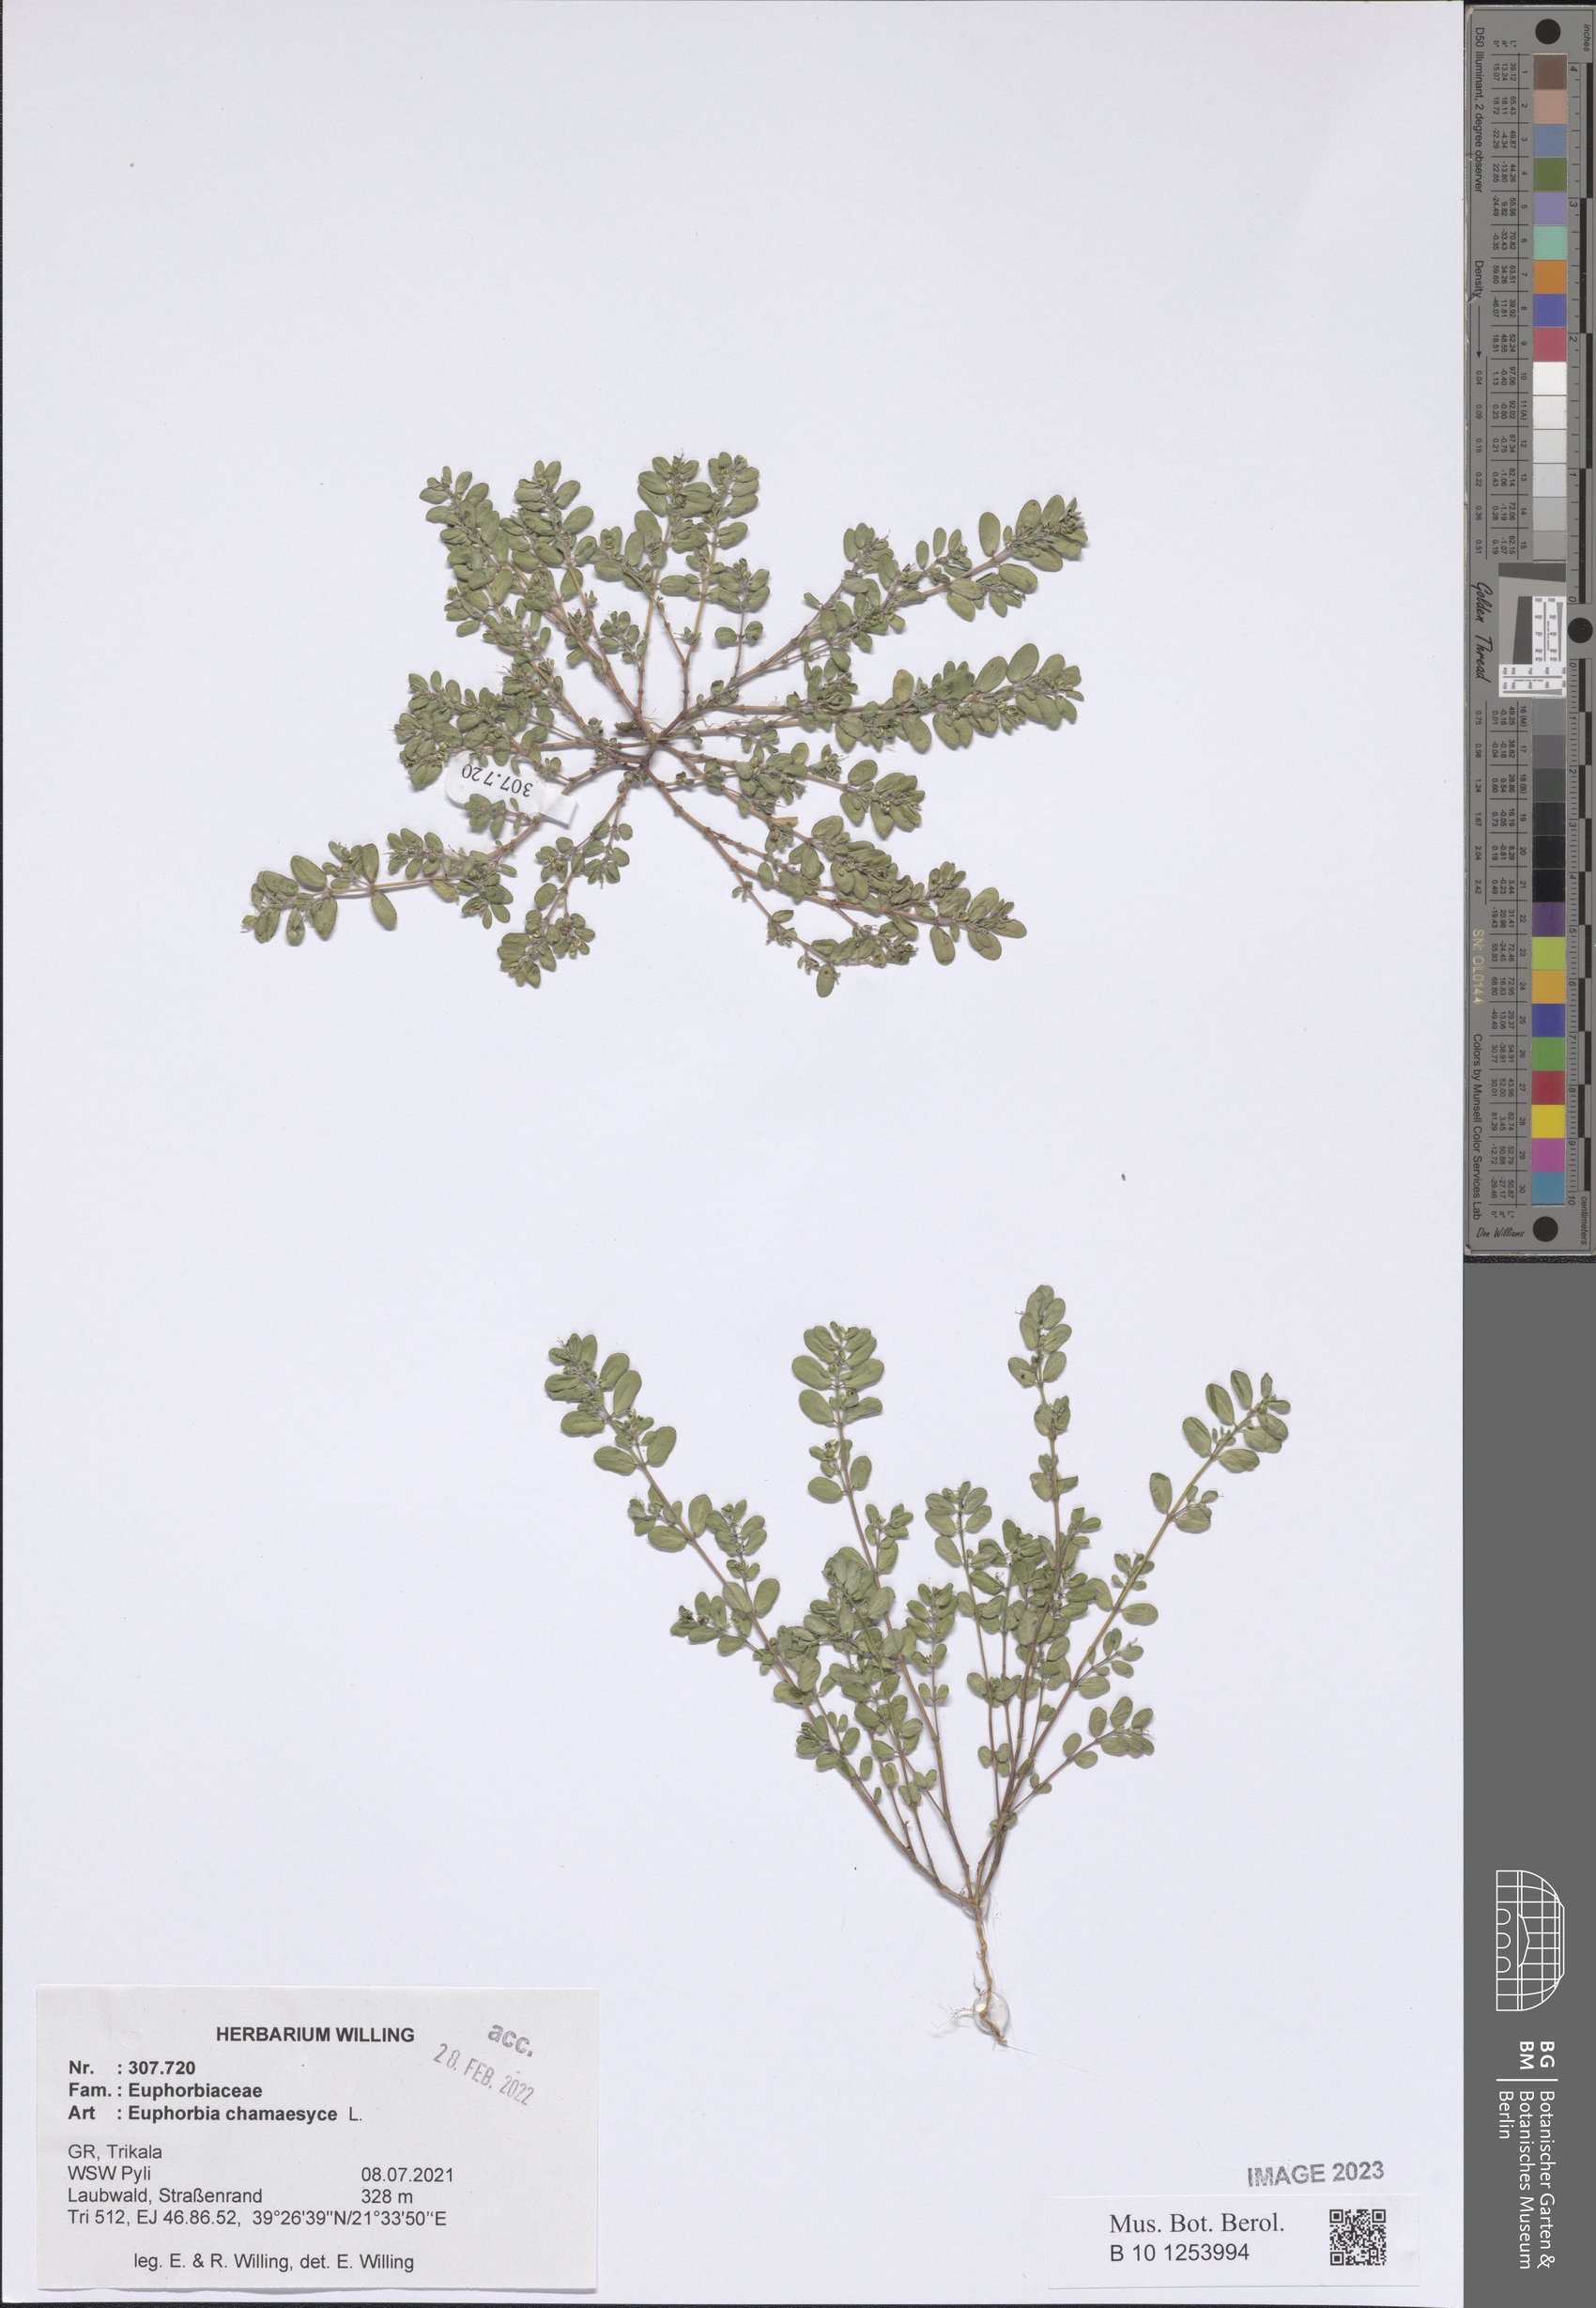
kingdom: Plantae
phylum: Tracheophyta
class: Magnoliopsida
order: Malpighiales
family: Euphorbiaceae
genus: Euphorbia
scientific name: Euphorbia chamaesyce
